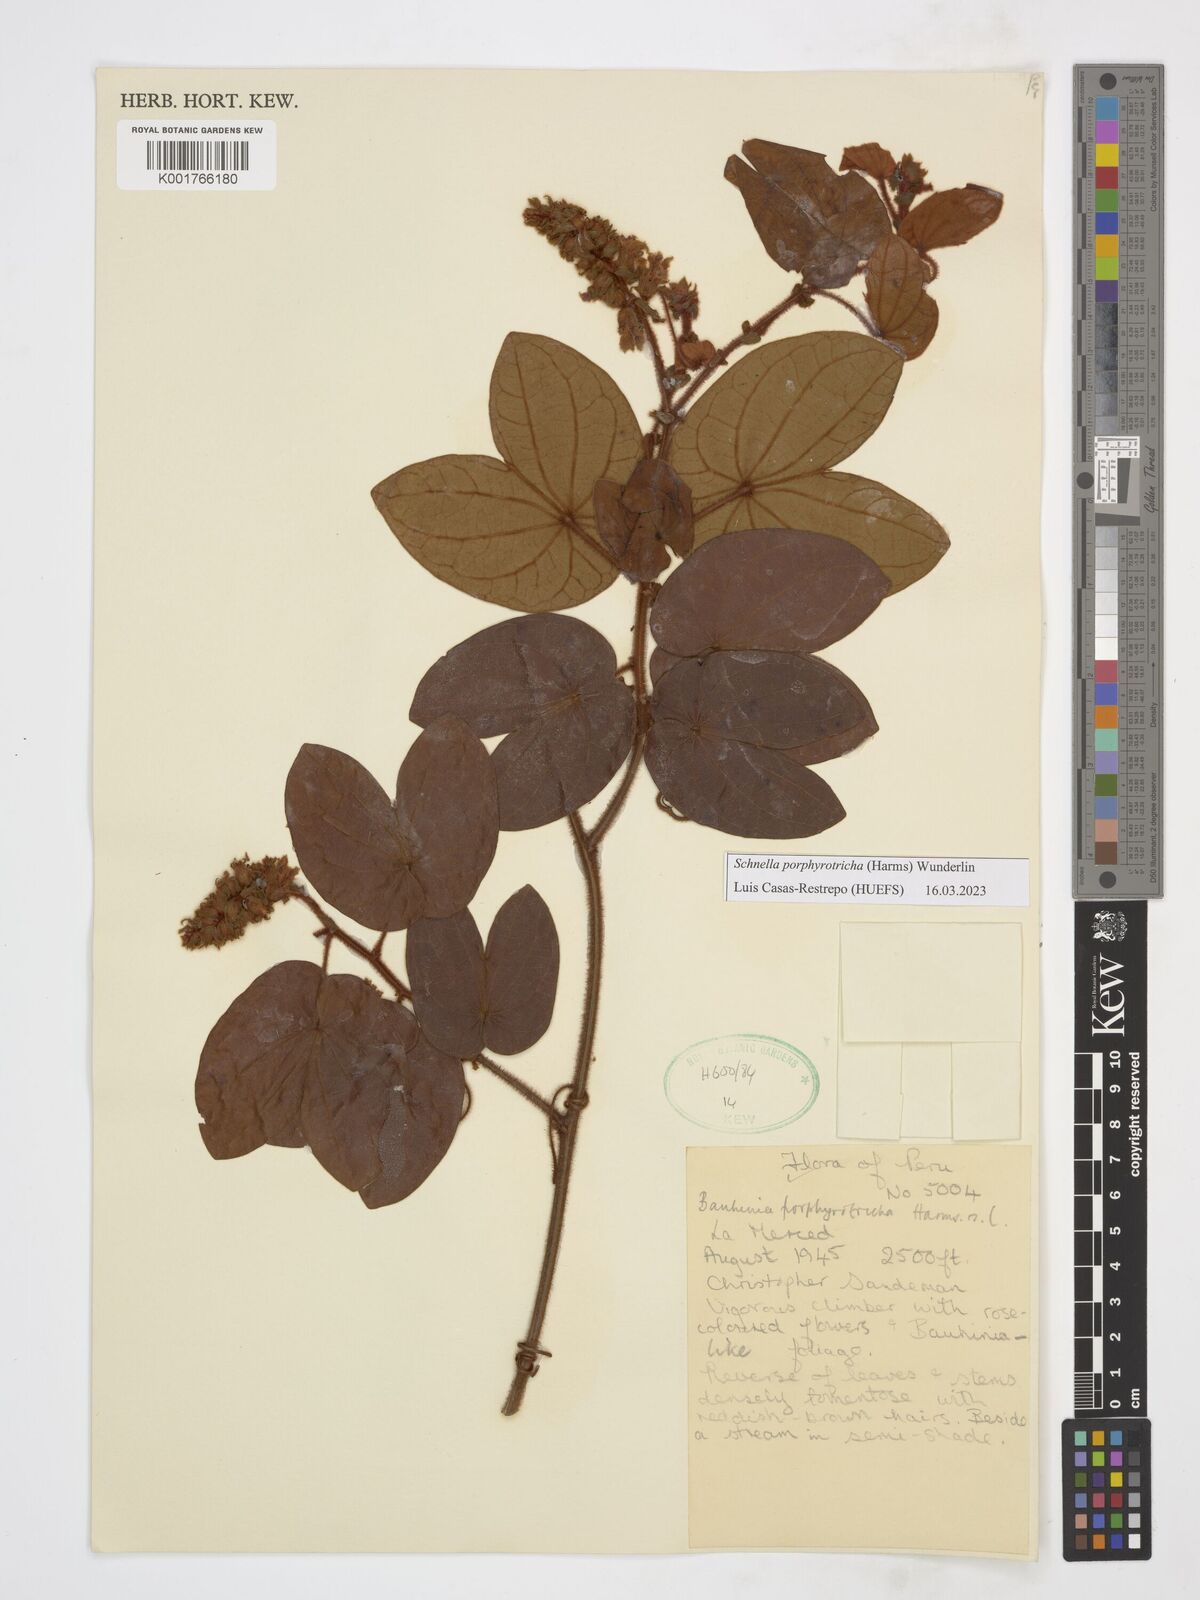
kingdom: Plantae
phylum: Tracheophyta
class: Magnoliopsida
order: Fabales
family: Fabaceae
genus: Schnella
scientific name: Schnella porphyrotricha
